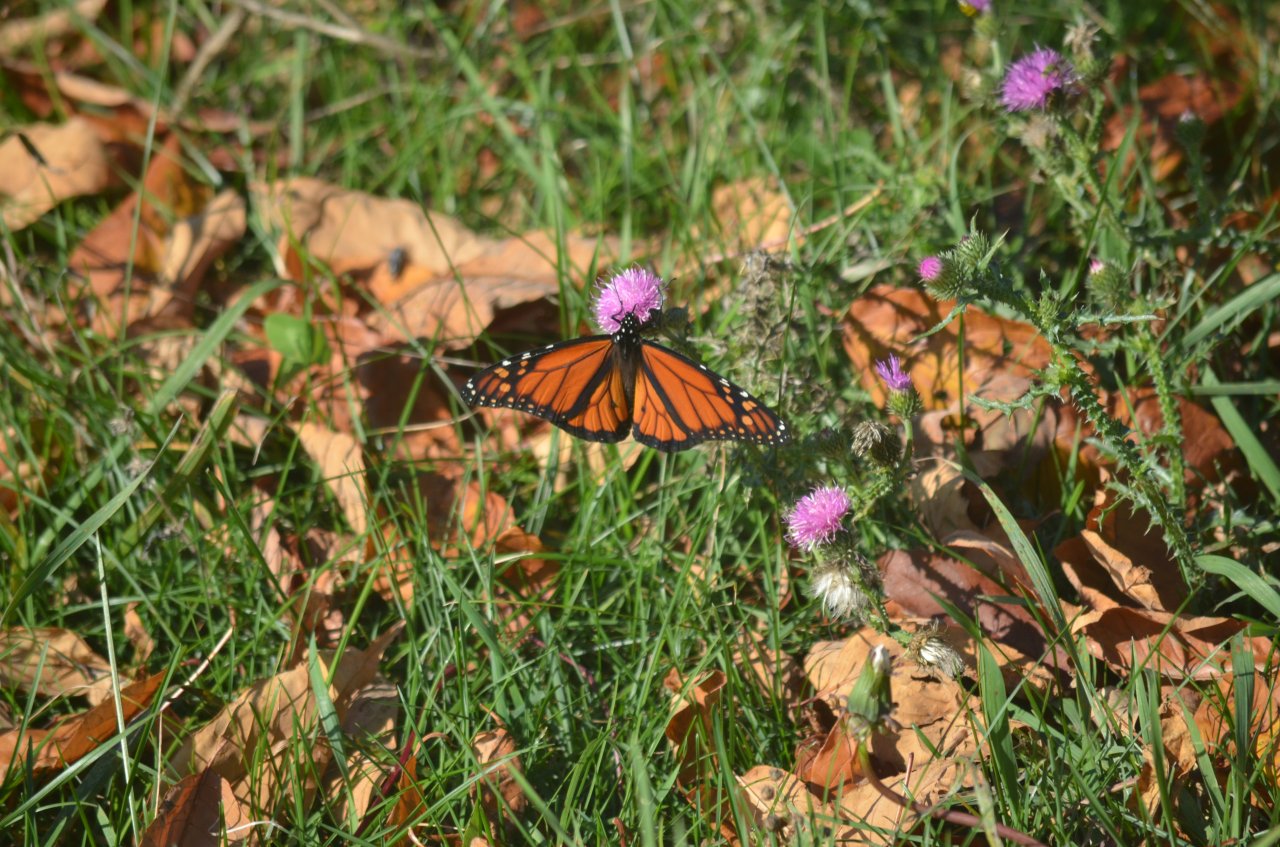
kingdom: Animalia
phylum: Arthropoda
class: Insecta
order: Lepidoptera
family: Nymphalidae
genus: Danaus
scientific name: Danaus plexippus
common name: Monarch
